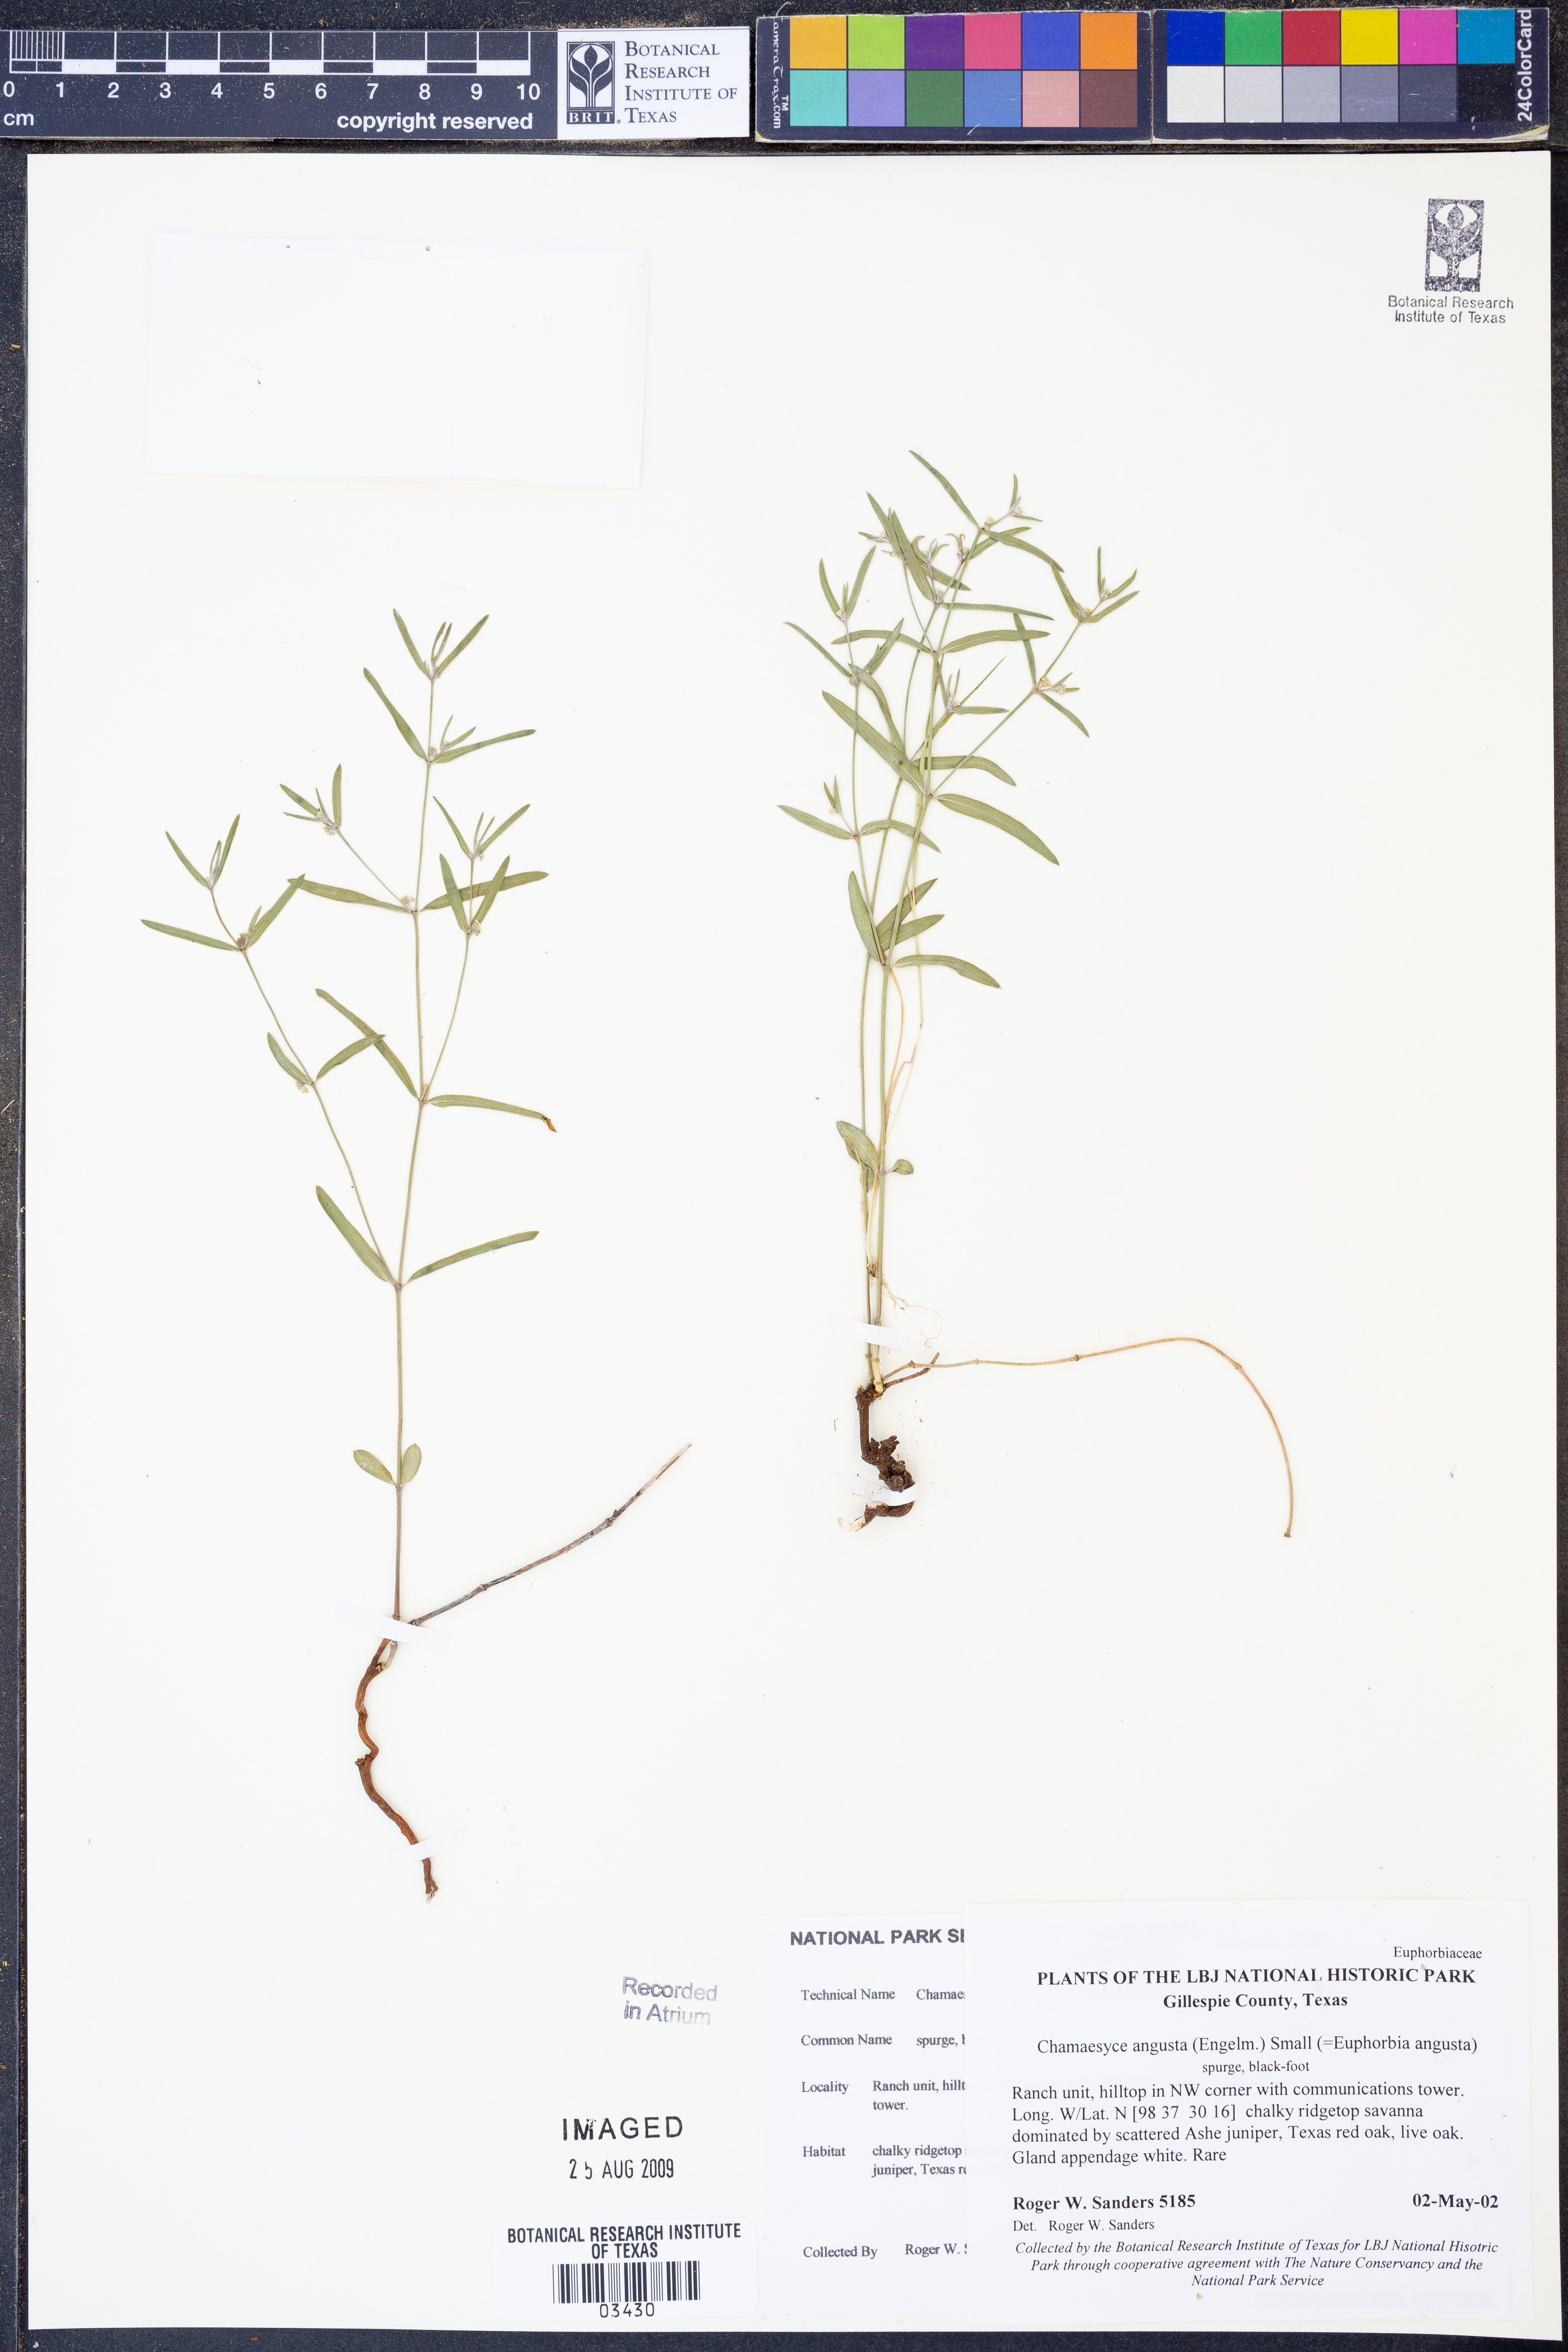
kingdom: Plantae
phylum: Tracheophyta
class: Magnoliopsida
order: Malpighiales
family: Euphorbiaceae
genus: Euphorbia
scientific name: Euphorbia angusta
